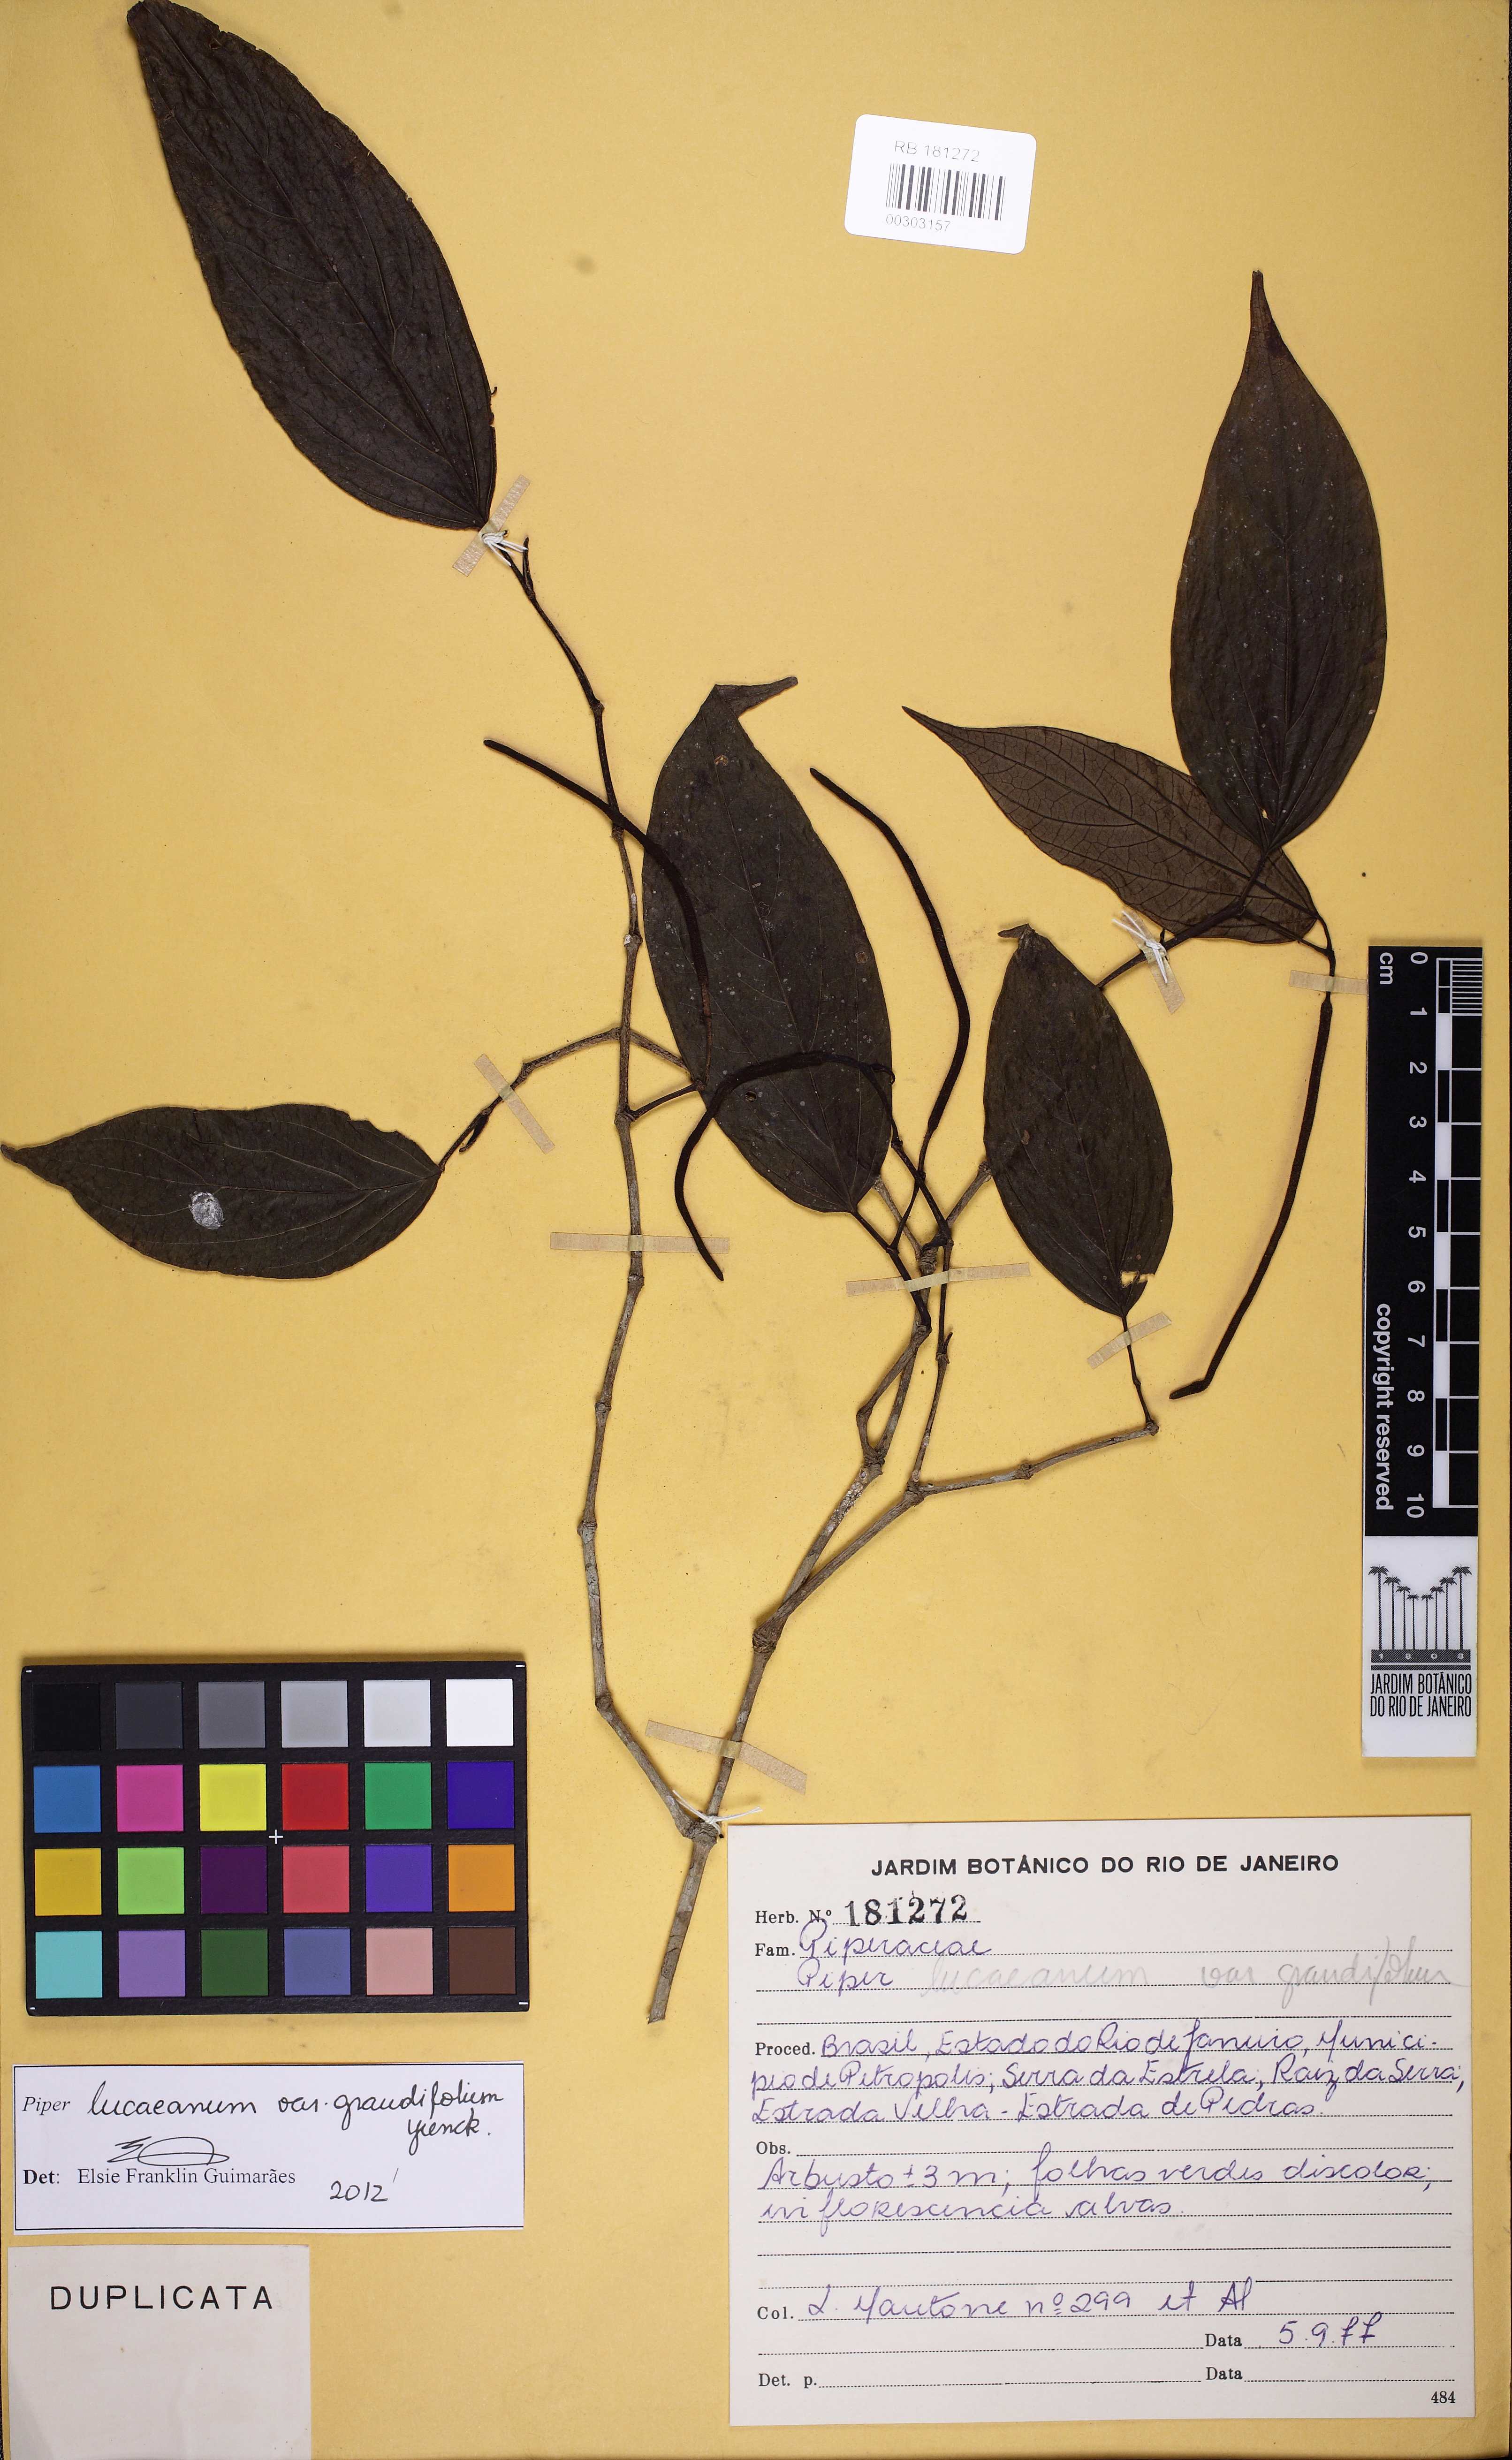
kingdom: Plantae
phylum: Tracheophyta
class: Magnoliopsida
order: Piperales
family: Piperaceae
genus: Piper
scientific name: Piper lepturum
